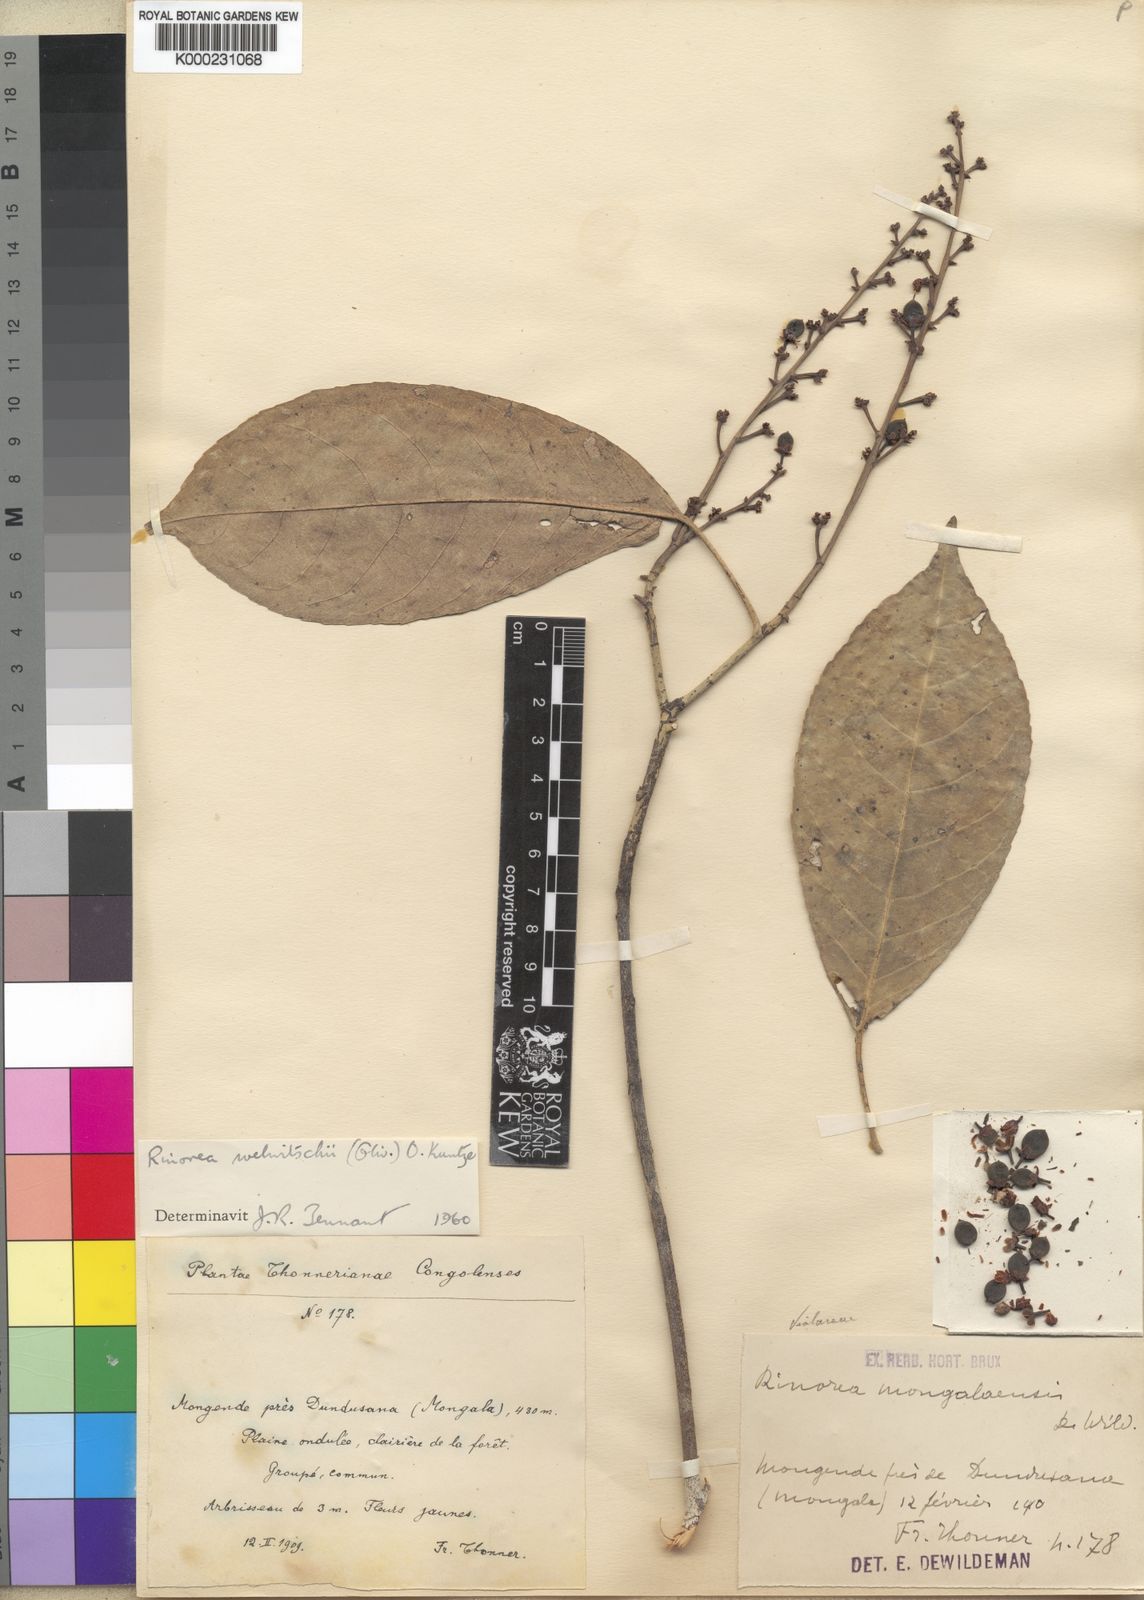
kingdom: Plantae
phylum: Tracheophyta
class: Magnoliopsida
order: Malpighiales
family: Violaceae
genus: Rinorea
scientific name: Rinorea welwitschii
